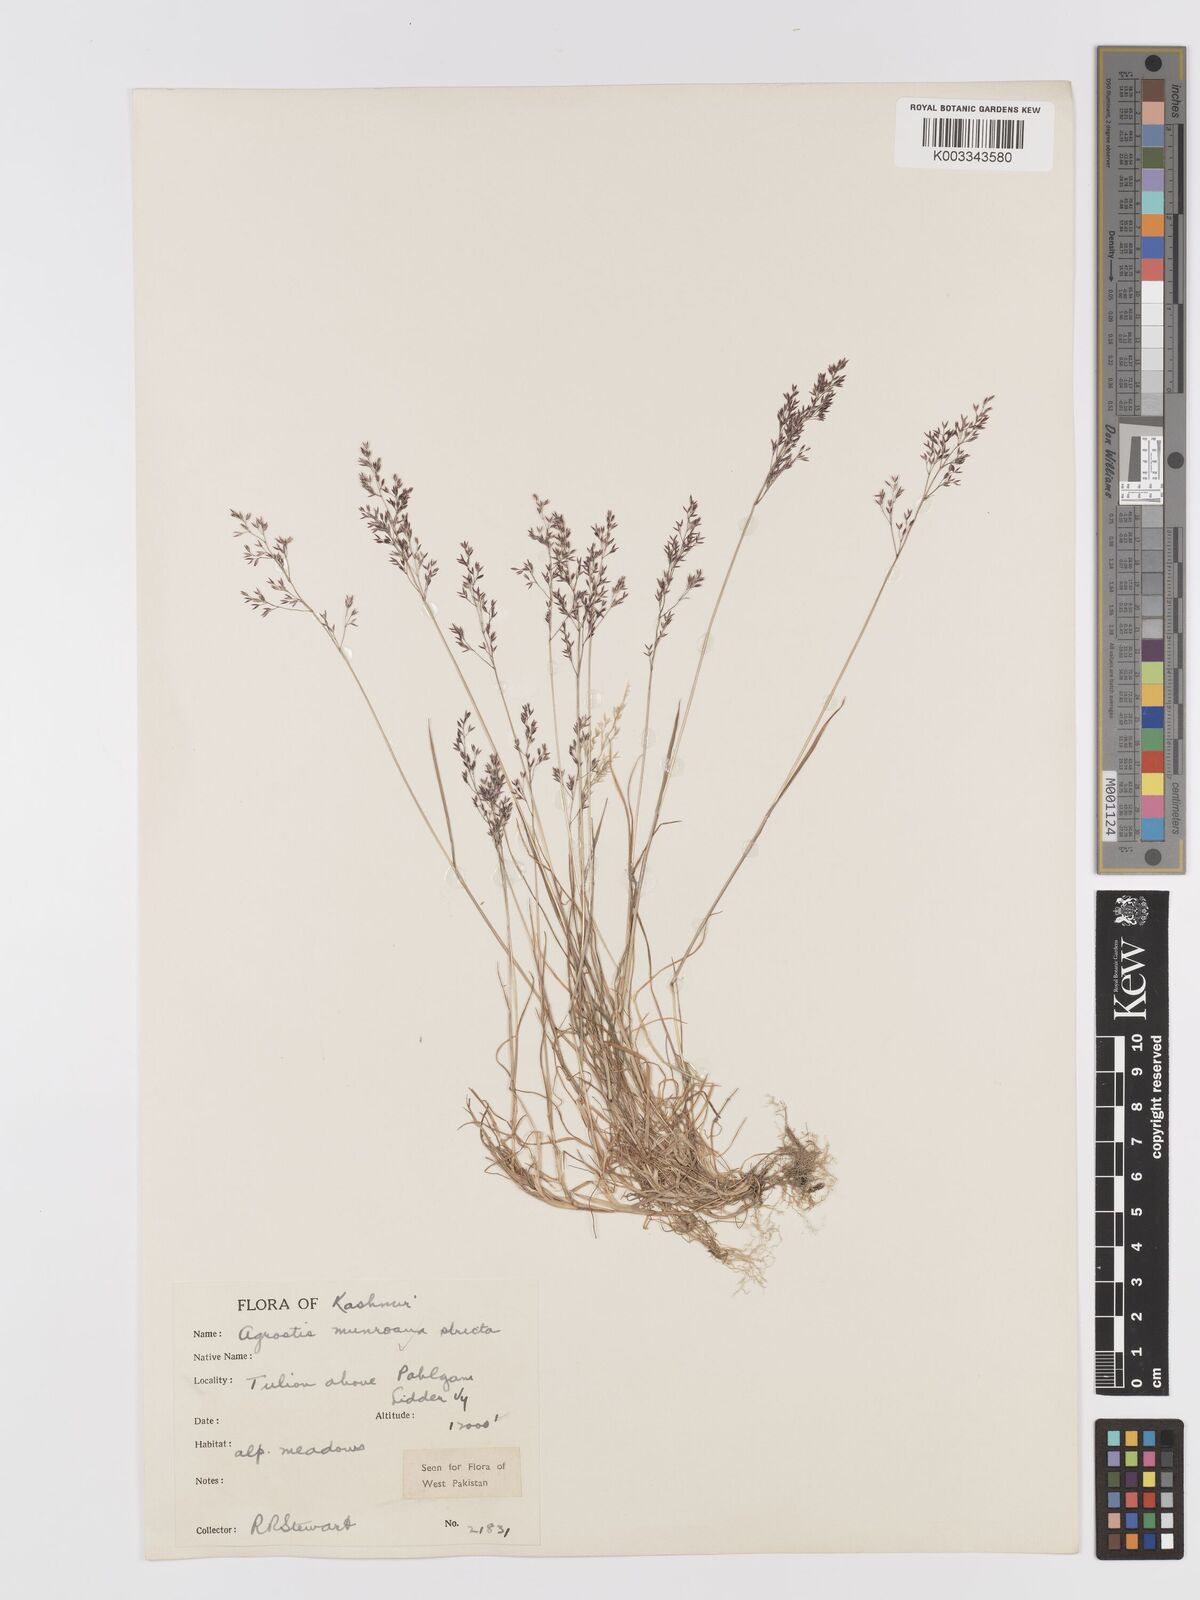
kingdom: Plantae
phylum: Tracheophyta
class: Liliopsida
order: Poales
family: Poaceae
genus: Agrostis
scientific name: Agrostis munroana
